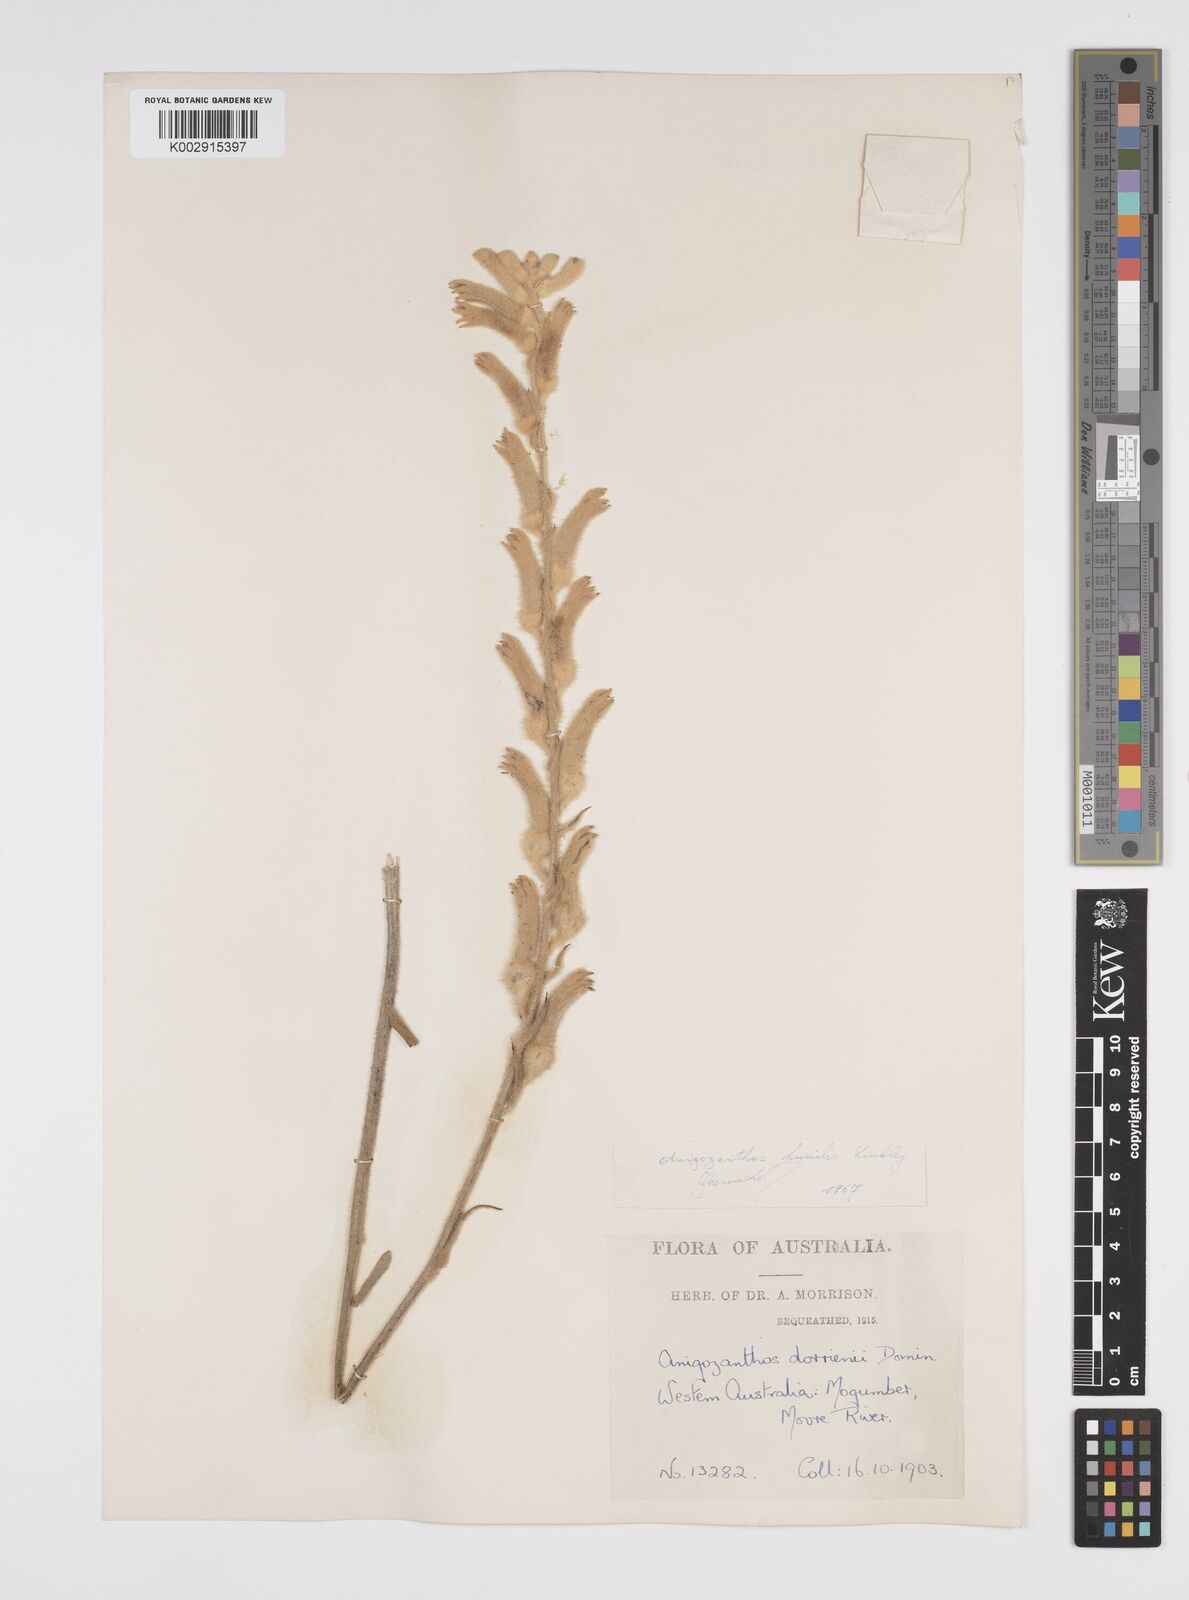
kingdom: Plantae
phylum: Tracheophyta
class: Liliopsida
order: Commelinales
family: Haemodoraceae
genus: Anigozanthos
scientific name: Anigozanthos humilis
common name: Cat's-paw
